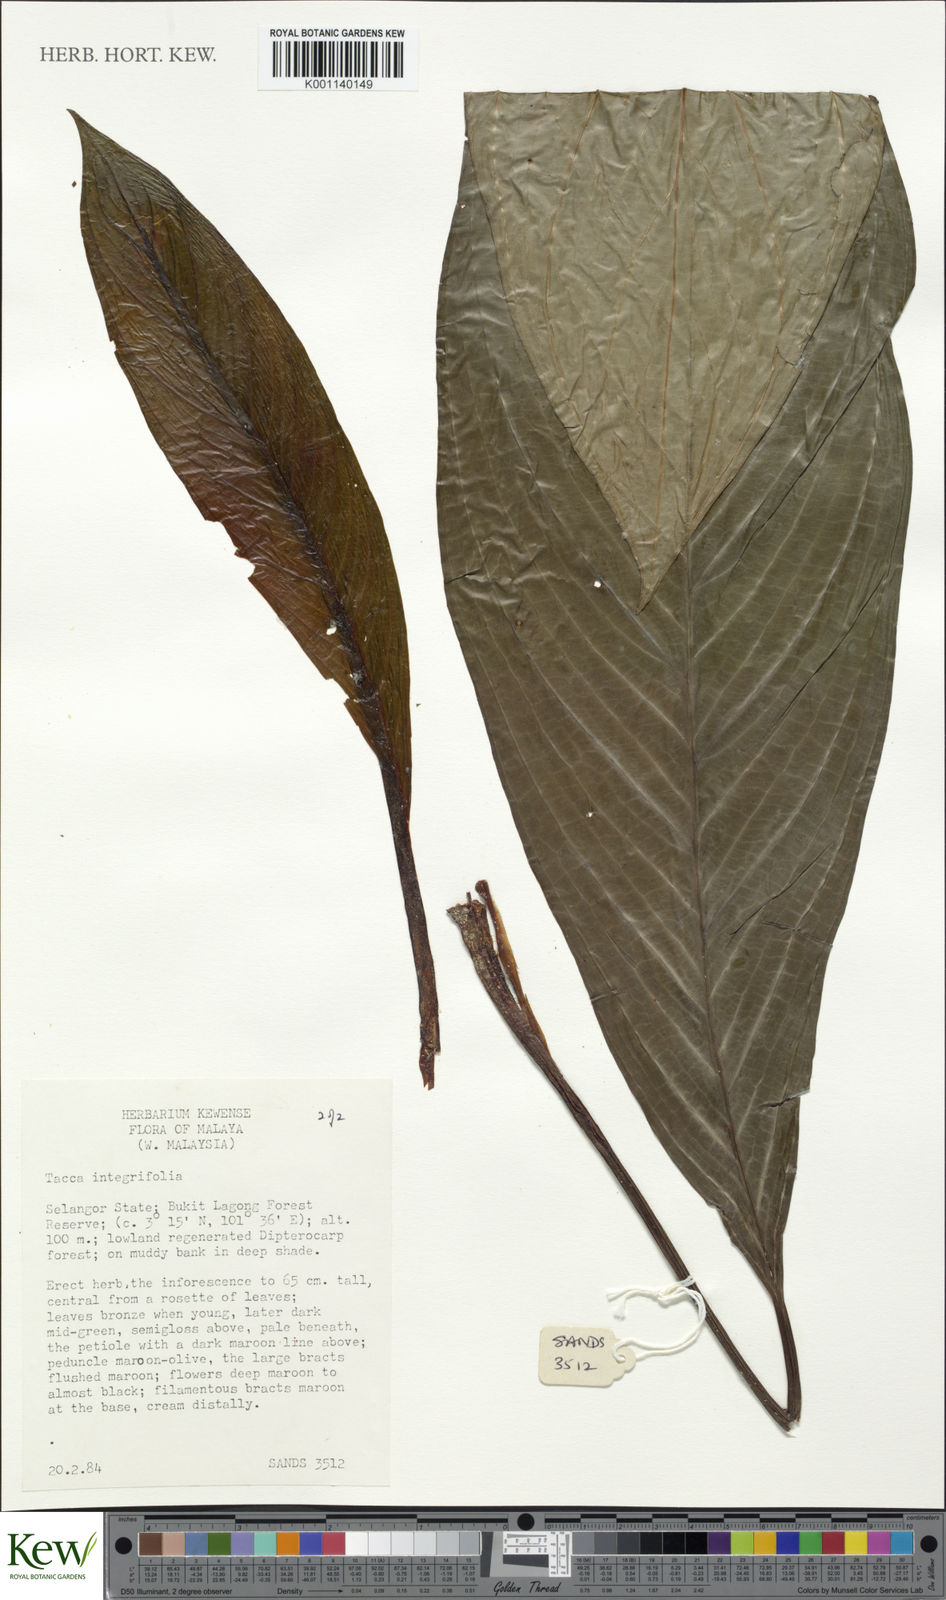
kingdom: Plantae
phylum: Tracheophyta
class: Liliopsida
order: Dioscoreales
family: Dioscoreaceae
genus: Tacca
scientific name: Tacca integrifolia
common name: Batplant
